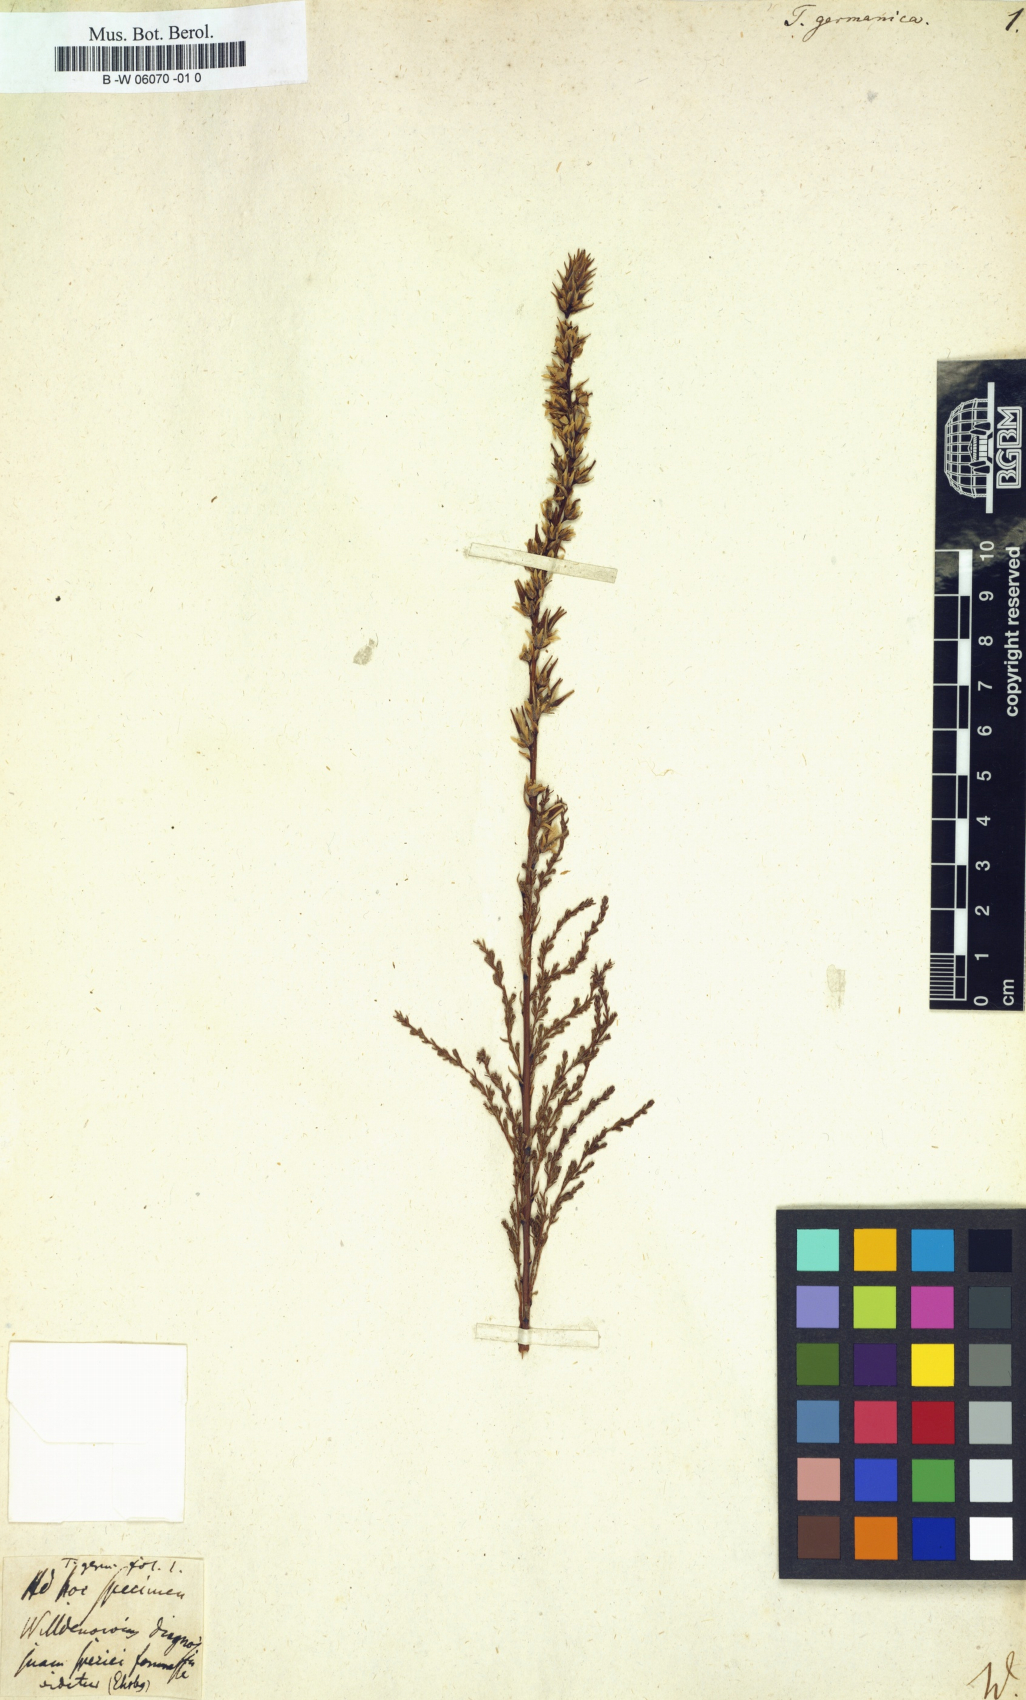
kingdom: Plantae
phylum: Tracheophyta
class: Magnoliopsida
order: Caryophyllales
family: Tamaricaceae
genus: Tamarix
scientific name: Tamarix germanica
